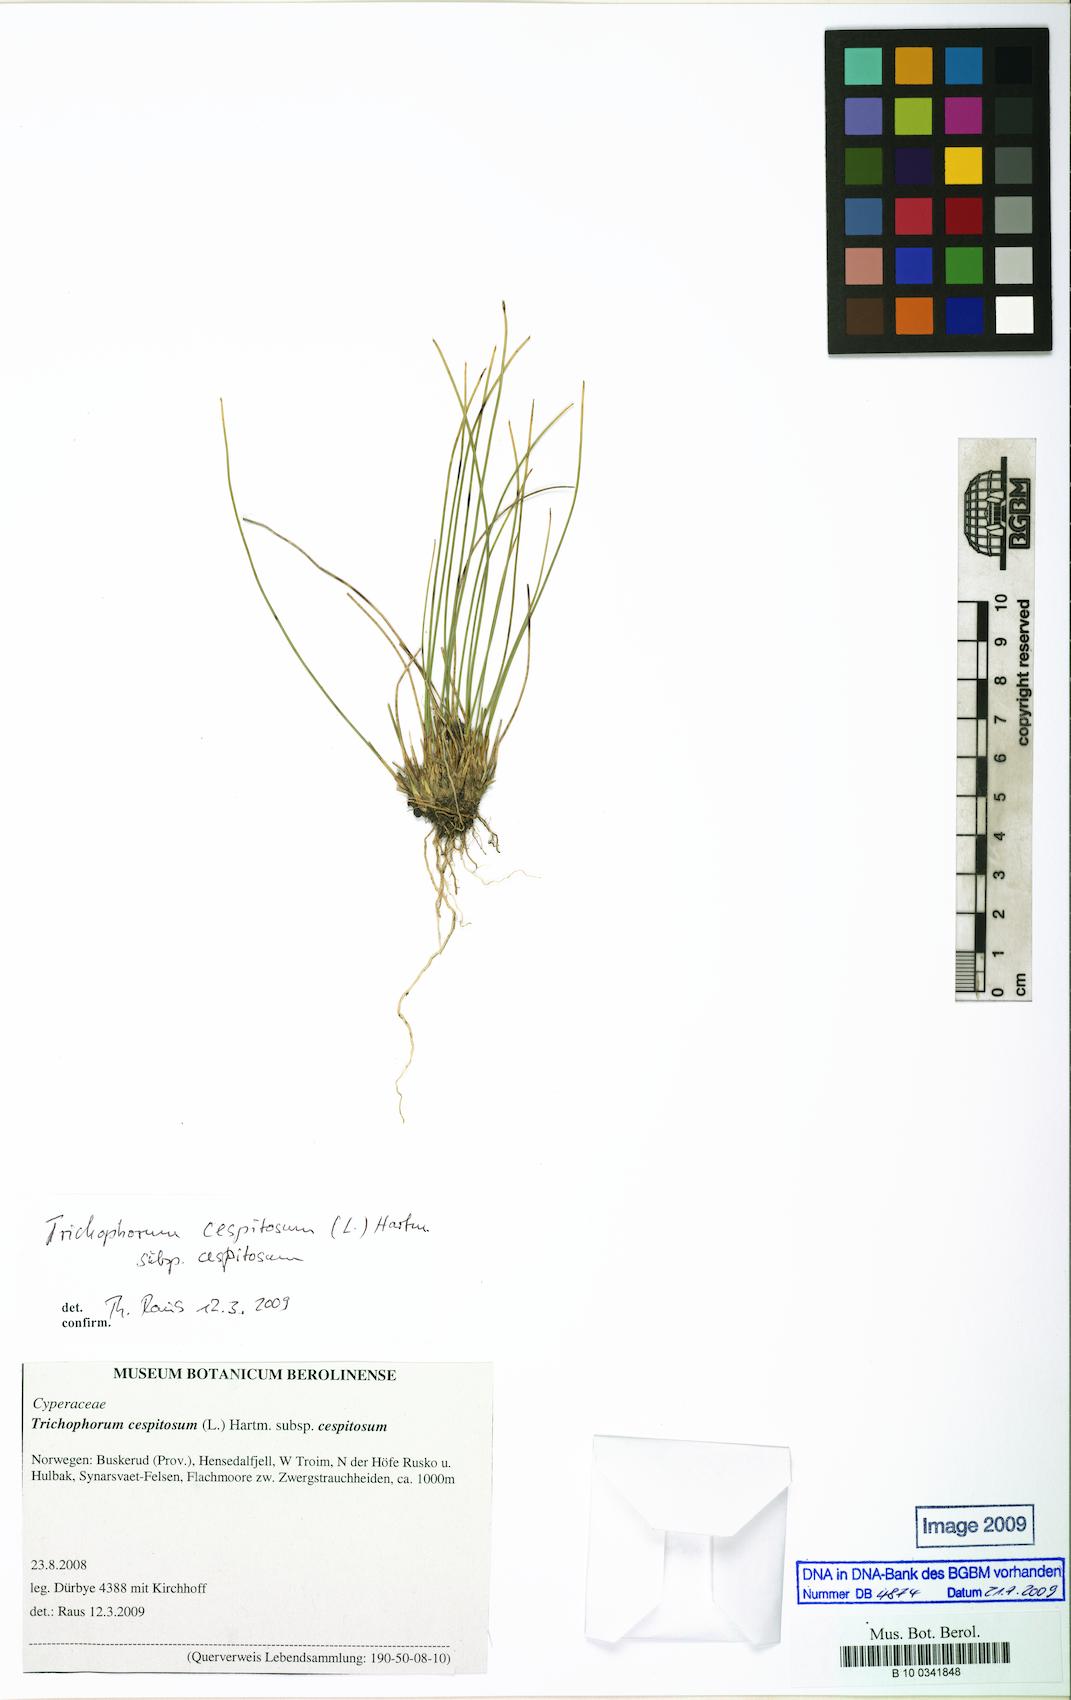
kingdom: Plantae
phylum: Tracheophyta
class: Liliopsida
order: Poales
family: Cyperaceae
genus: Trichophorum
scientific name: Trichophorum cespitosum
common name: Cespitose bulrush
